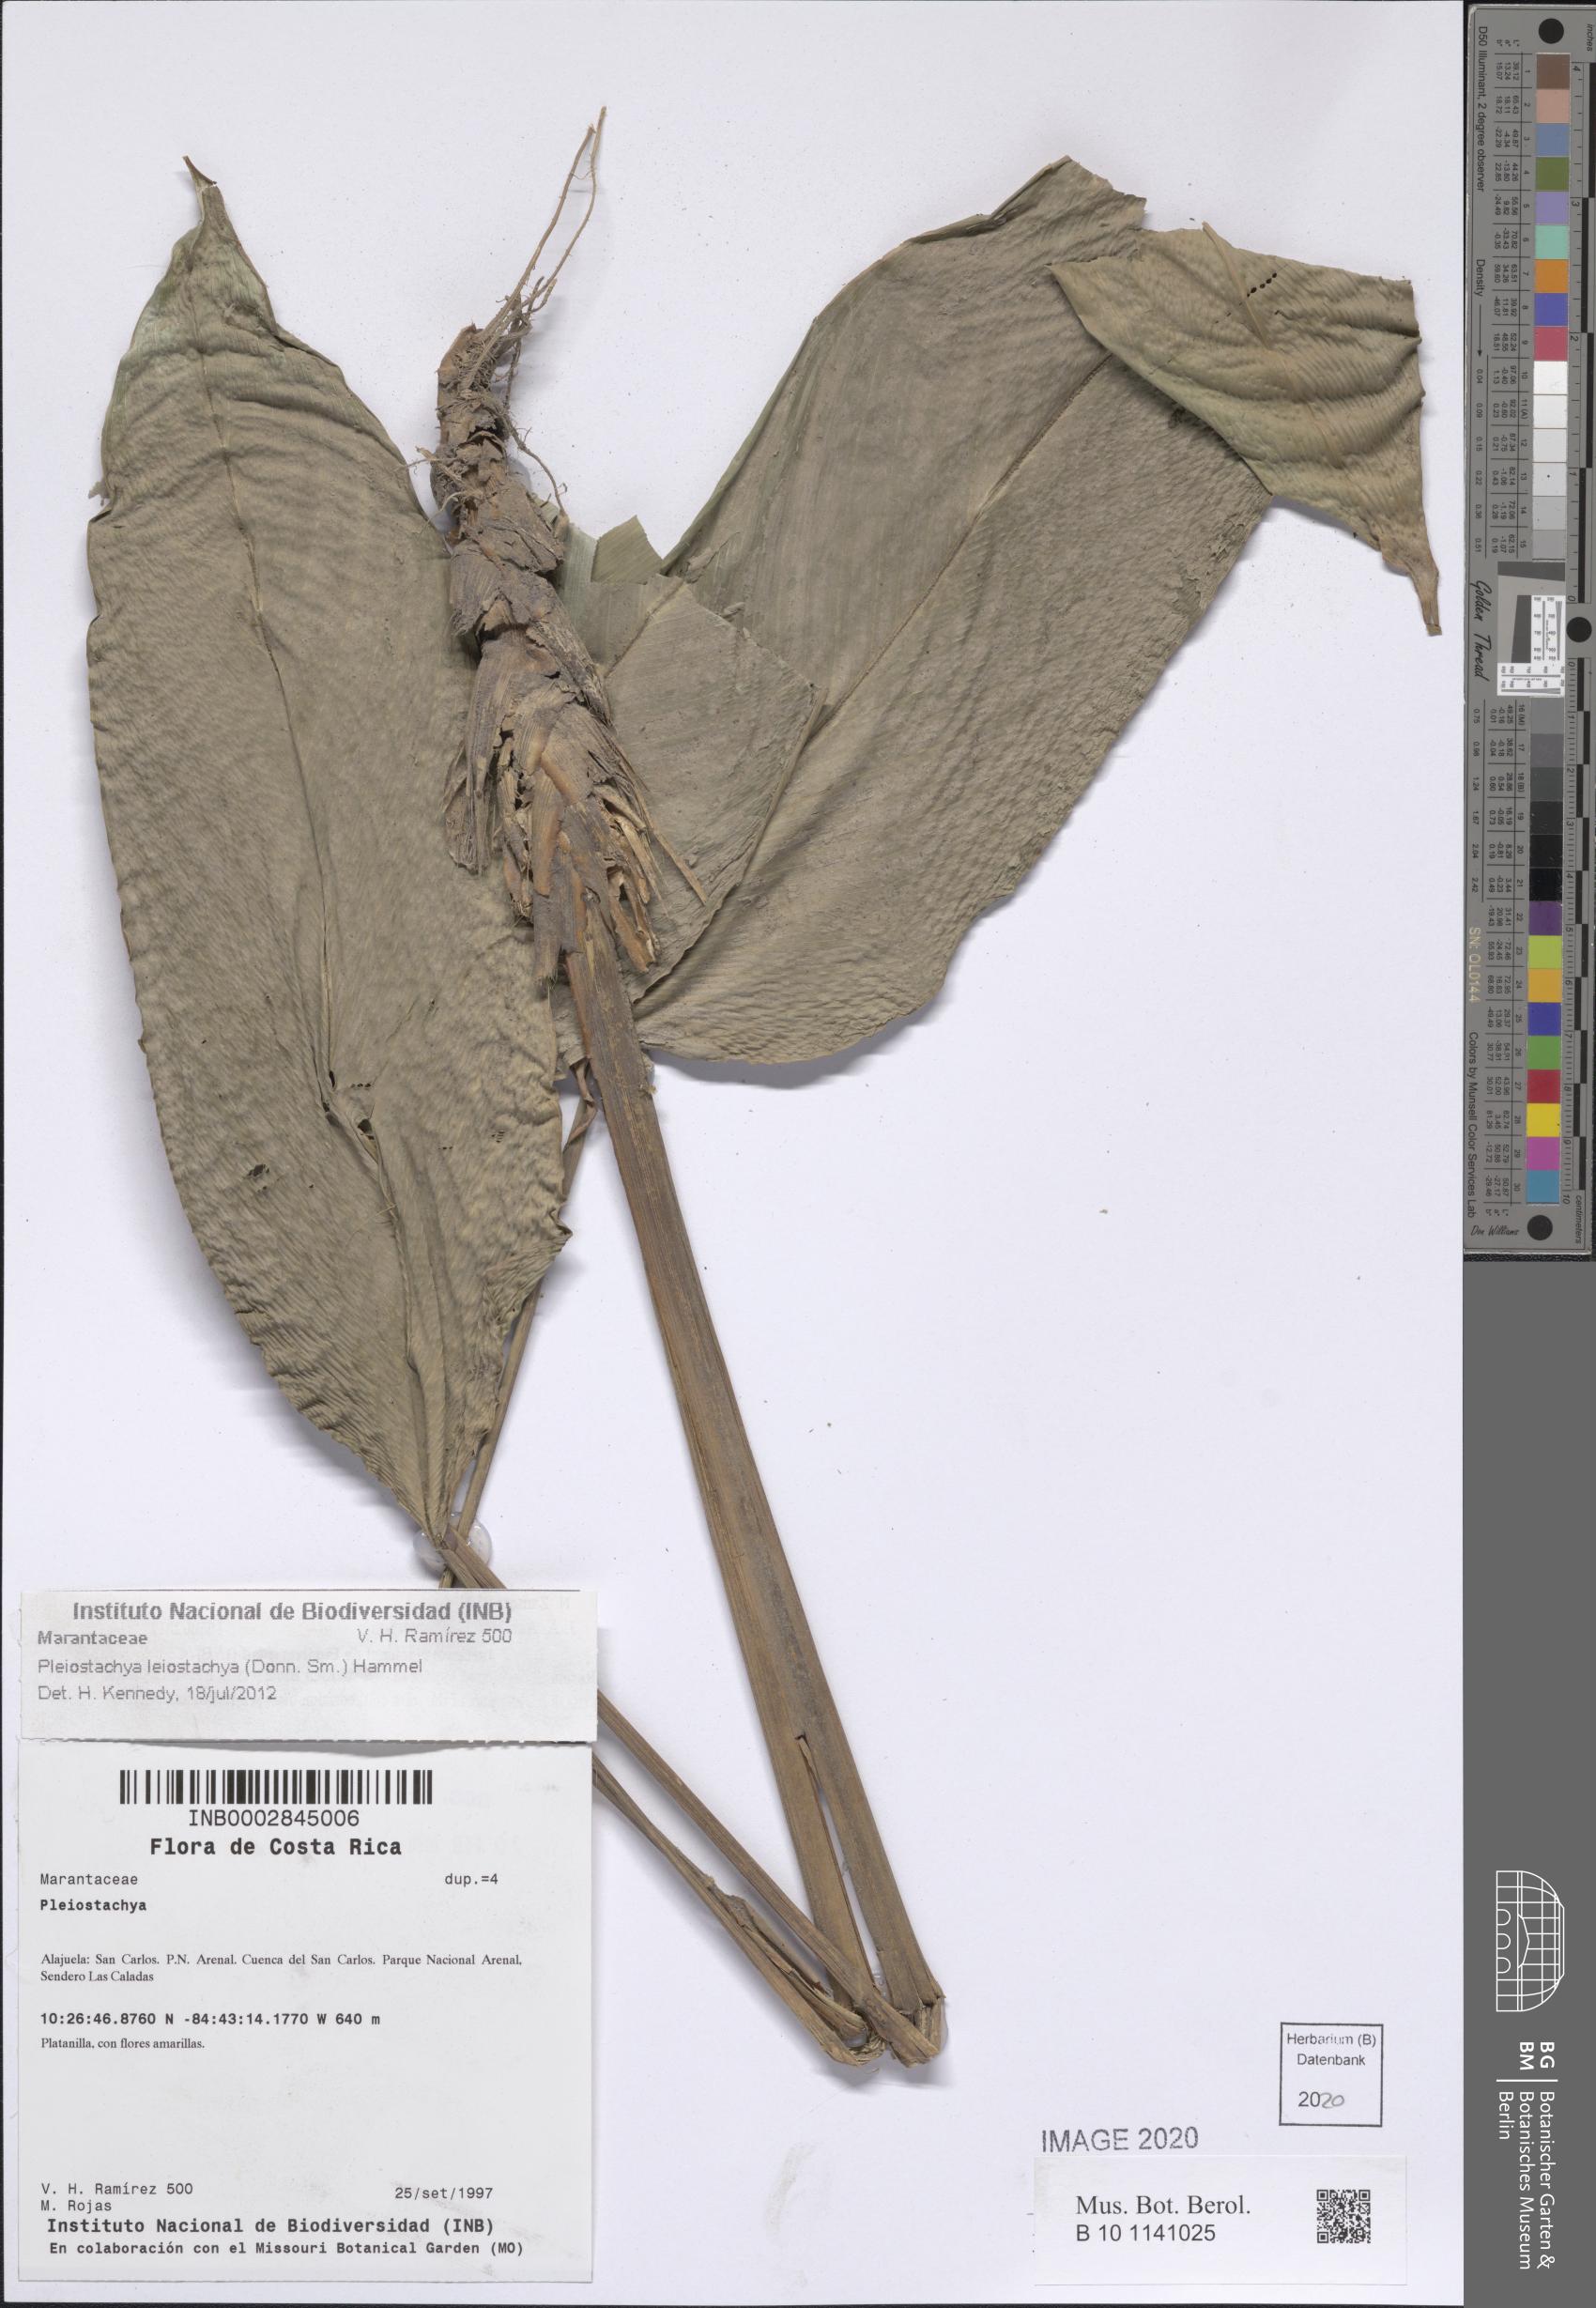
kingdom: Plantae
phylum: Tracheophyta
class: Liliopsida
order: Zingiberales
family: Marantaceae
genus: Pleiostachya
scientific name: Pleiostachya leiostachya
